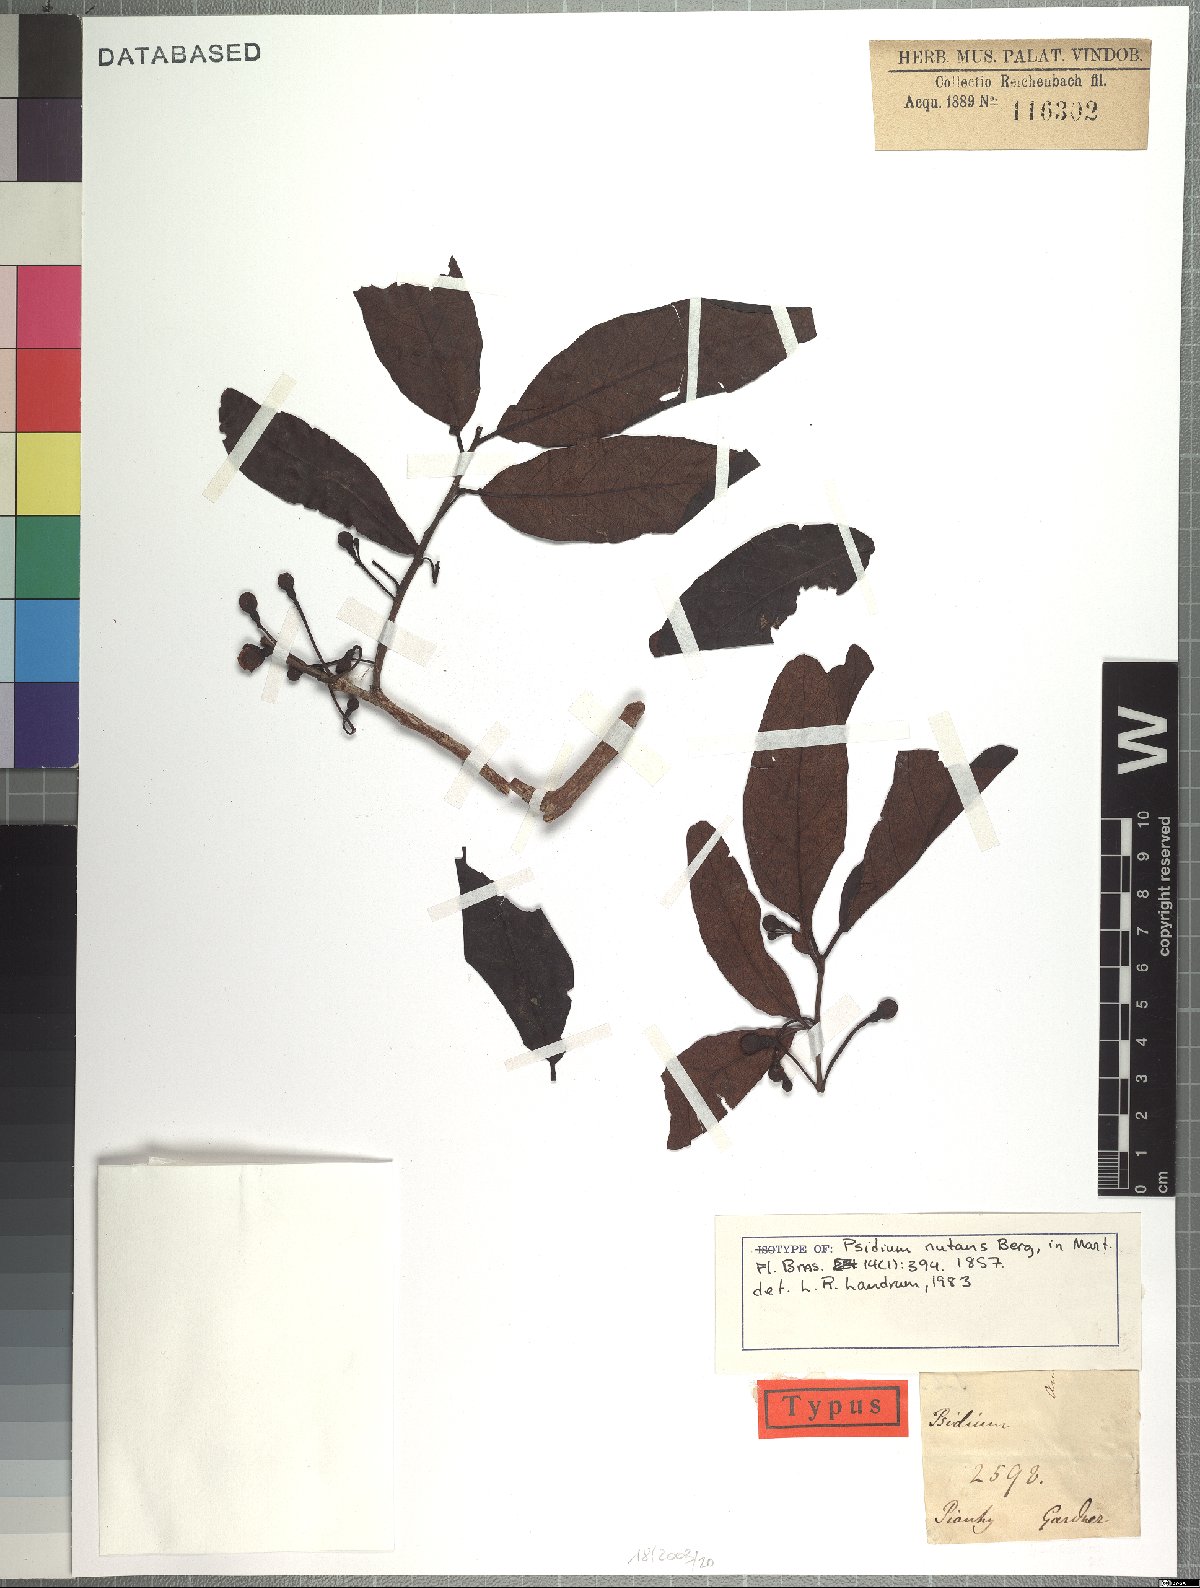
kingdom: Plantae
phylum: Tracheophyta
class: Magnoliopsida
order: Myrtales
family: Myrtaceae
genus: Psidium
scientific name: Psidium nutans
